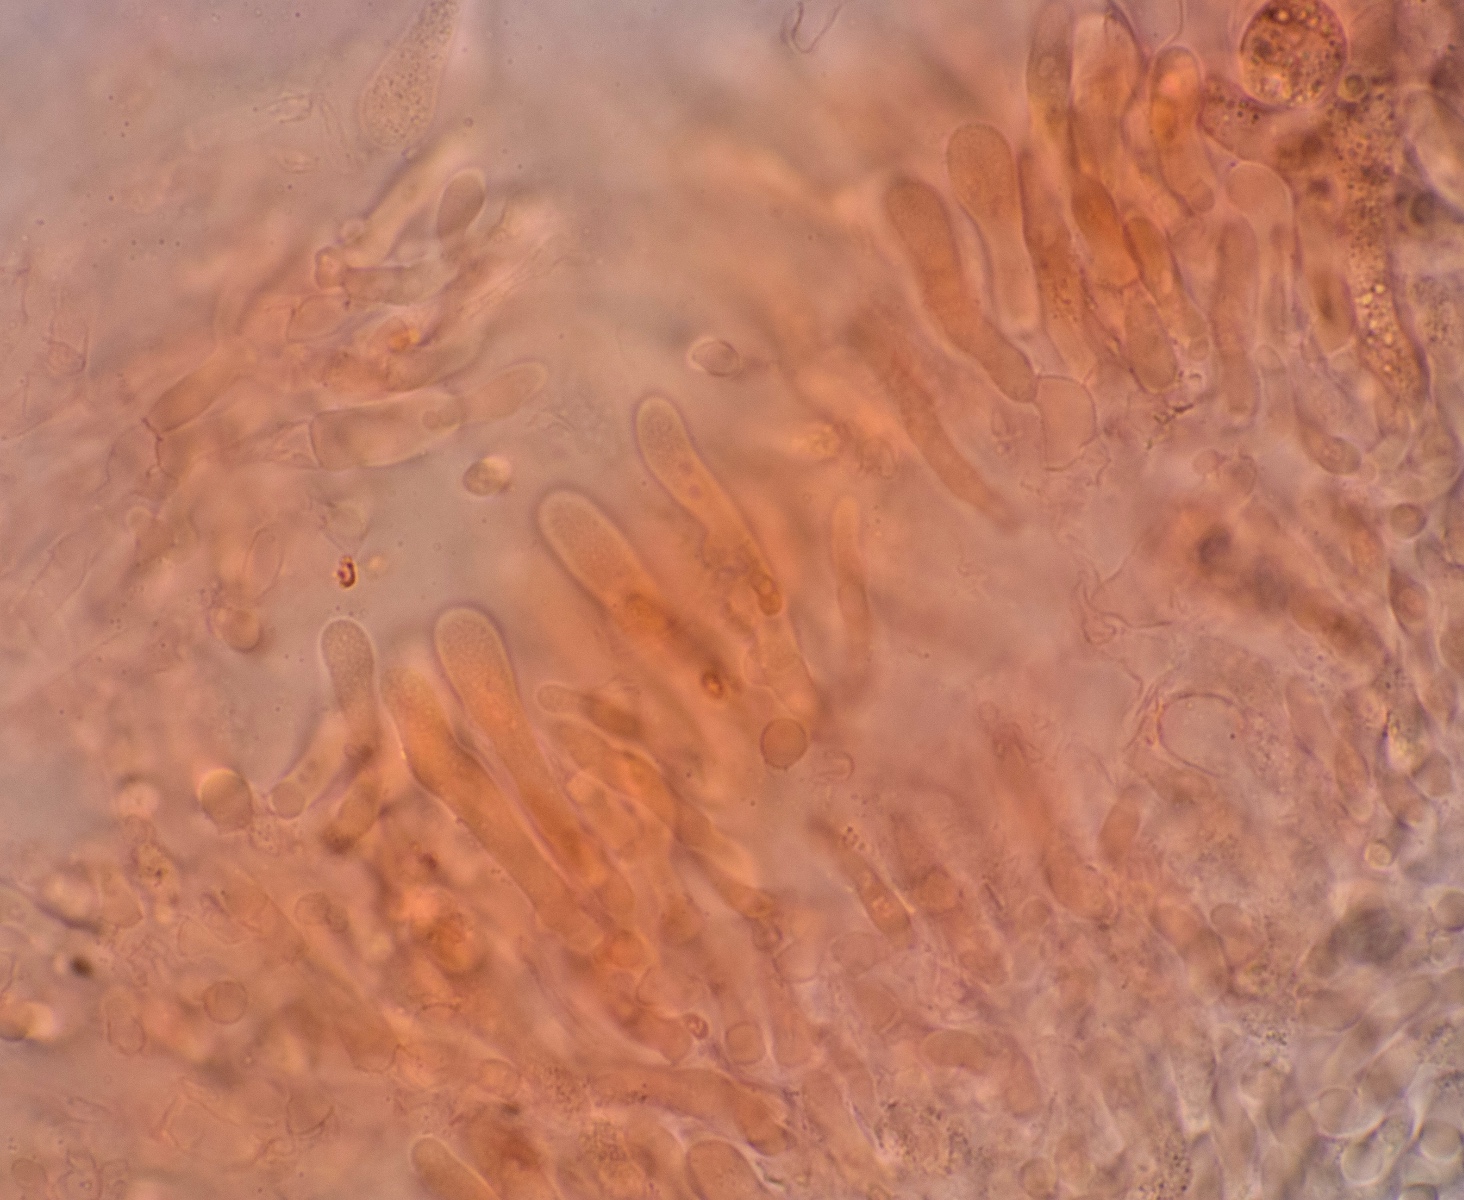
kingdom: Fungi
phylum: Basidiomycota
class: Agaricomycetes
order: Agaricales
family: Entolomataceae
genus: Entoloma
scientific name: Entoloma
